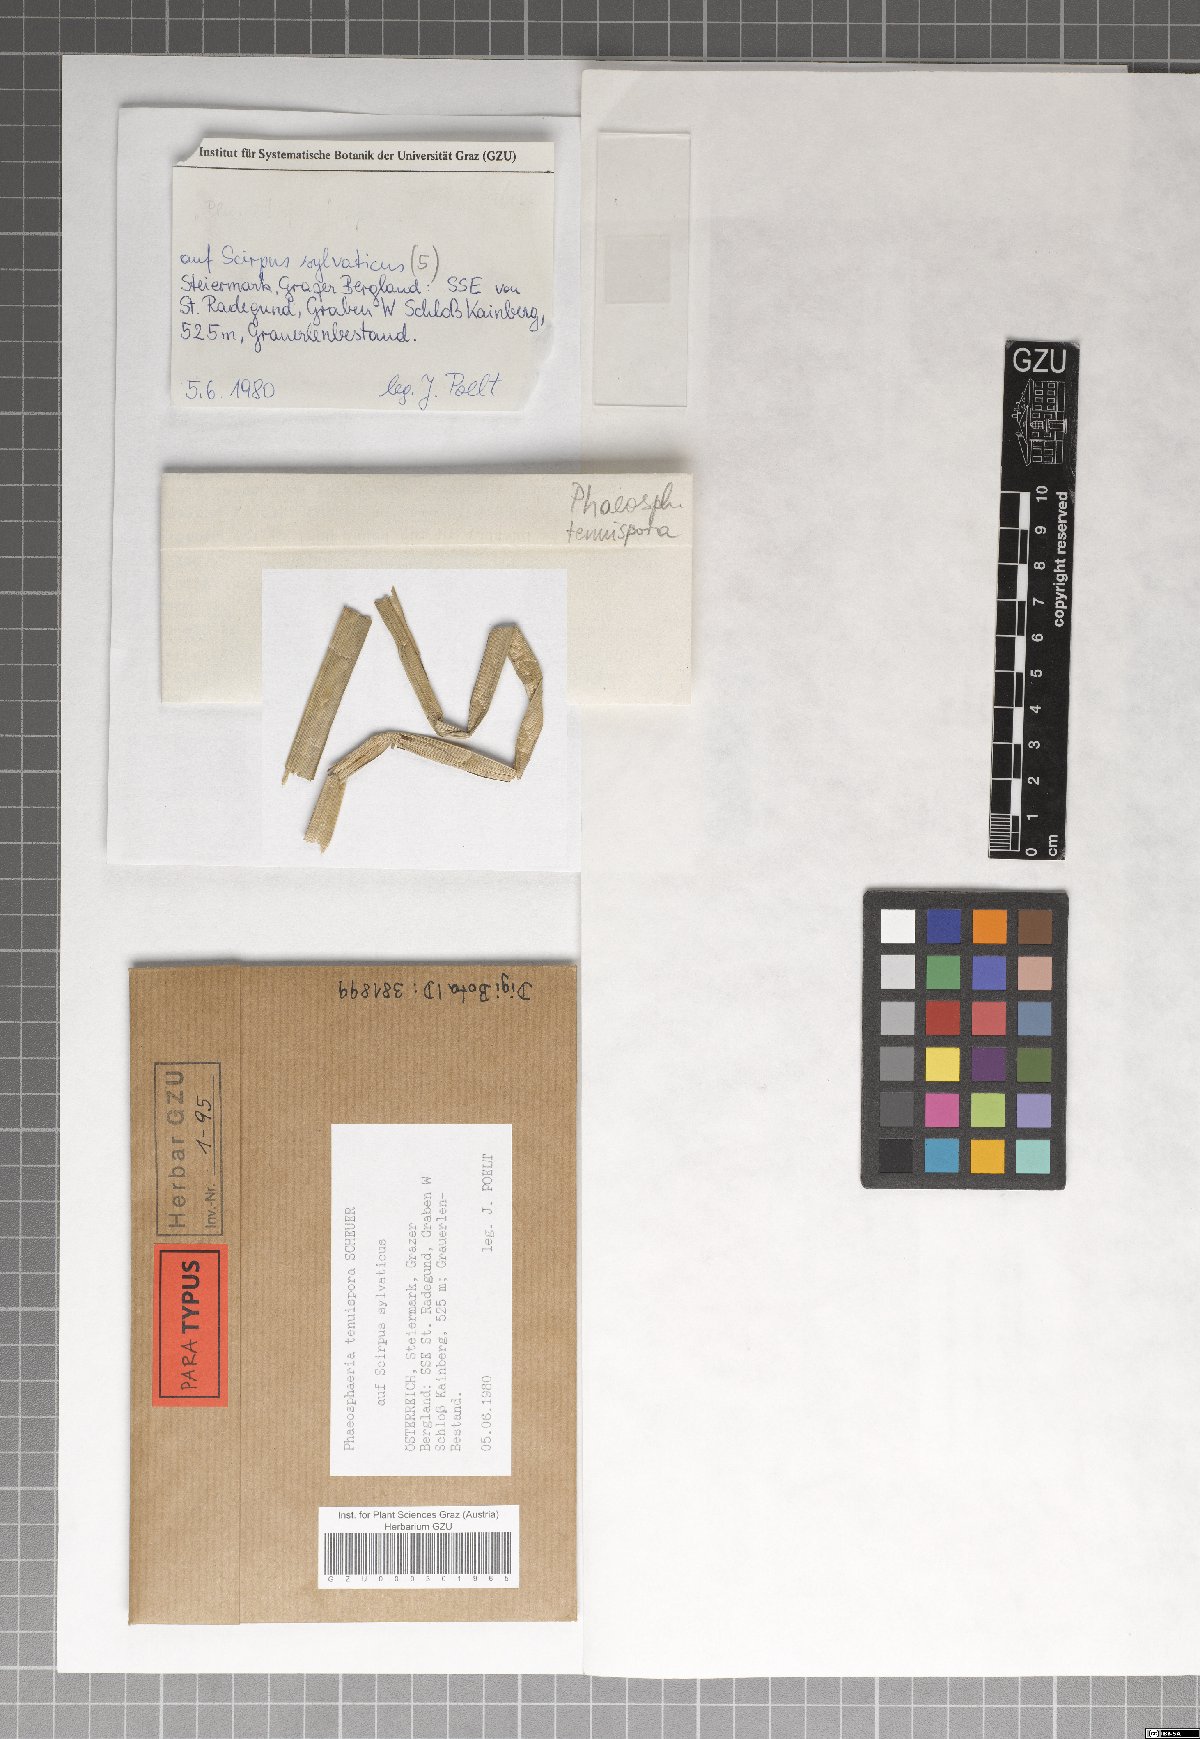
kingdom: Fungi
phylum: Ascomycota
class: Dothideomycetes
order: Pleosporales
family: Phaeosphaeriaceae
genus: Phaeosphaeria
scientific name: Phaeosphaeria tenuispora
